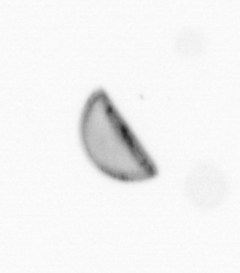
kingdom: Chromista
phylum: Ochrophyta
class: Bacillariophyceae
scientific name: Bacillariophyceae
